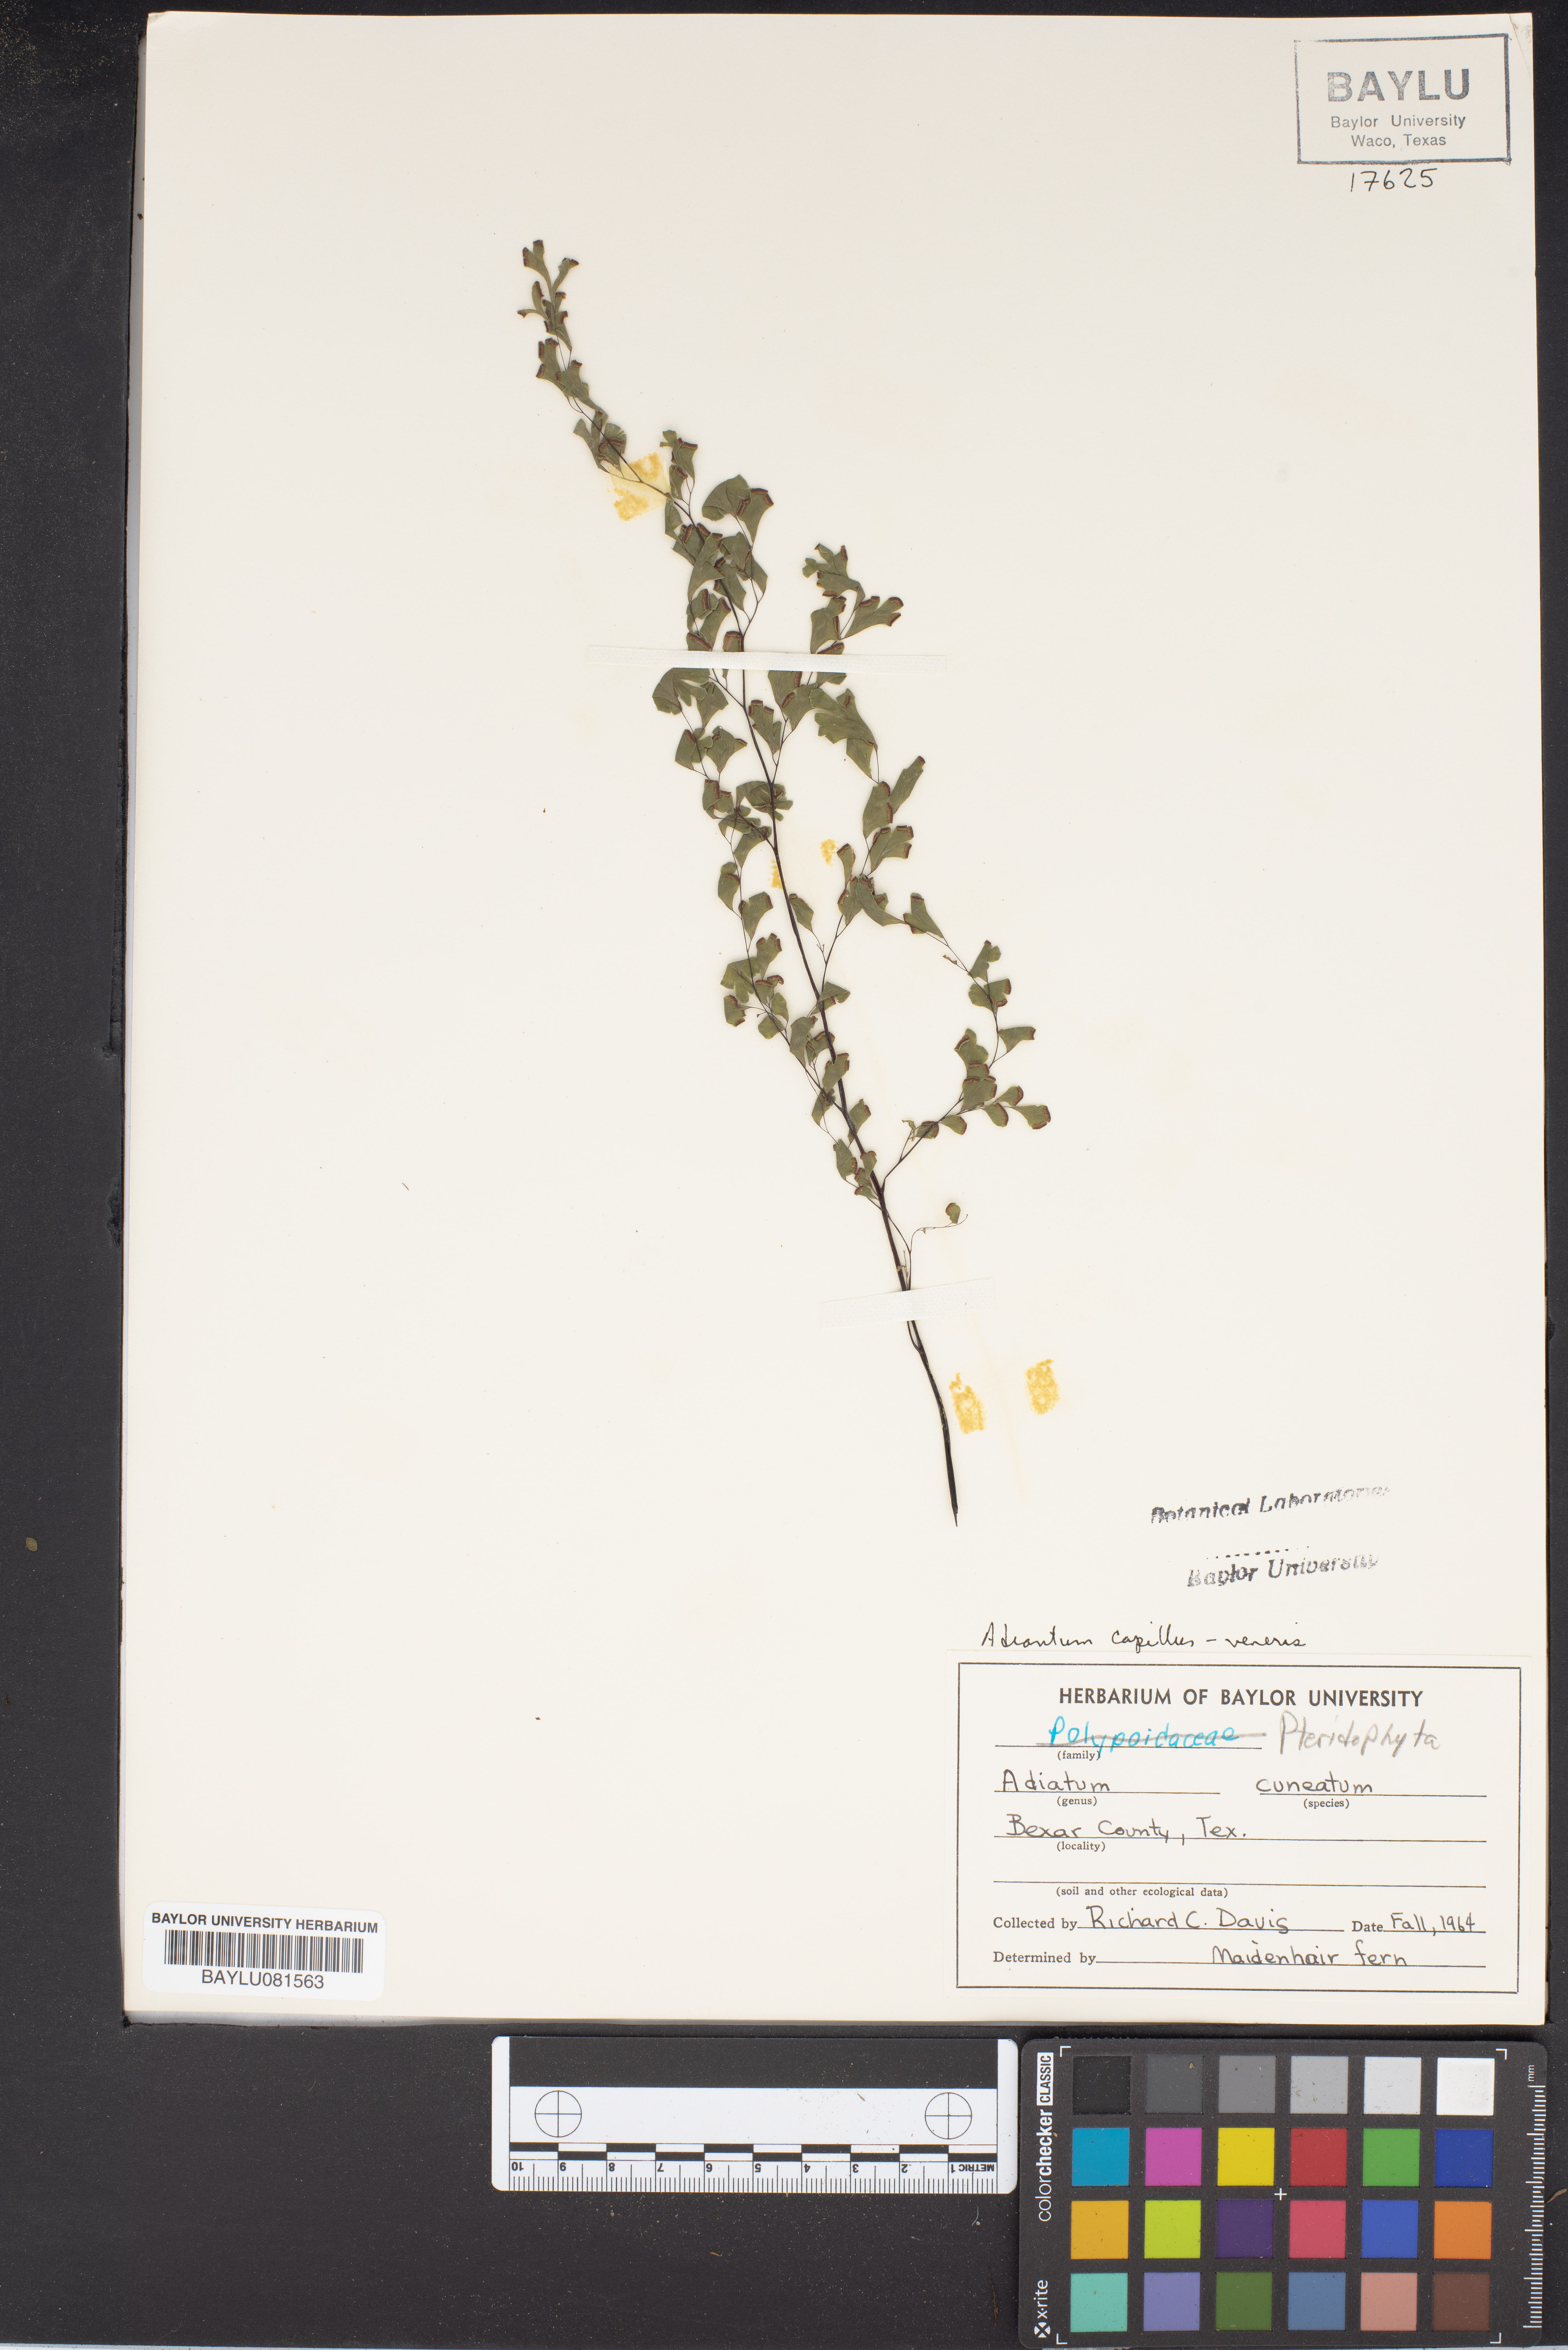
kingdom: Plantae
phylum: Tracheophyta
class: Polypodiopsida
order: Polypodiales
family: Pteridaceae
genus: Adiantum
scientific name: Adiantum raddianum
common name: Delta maidenhair fern
